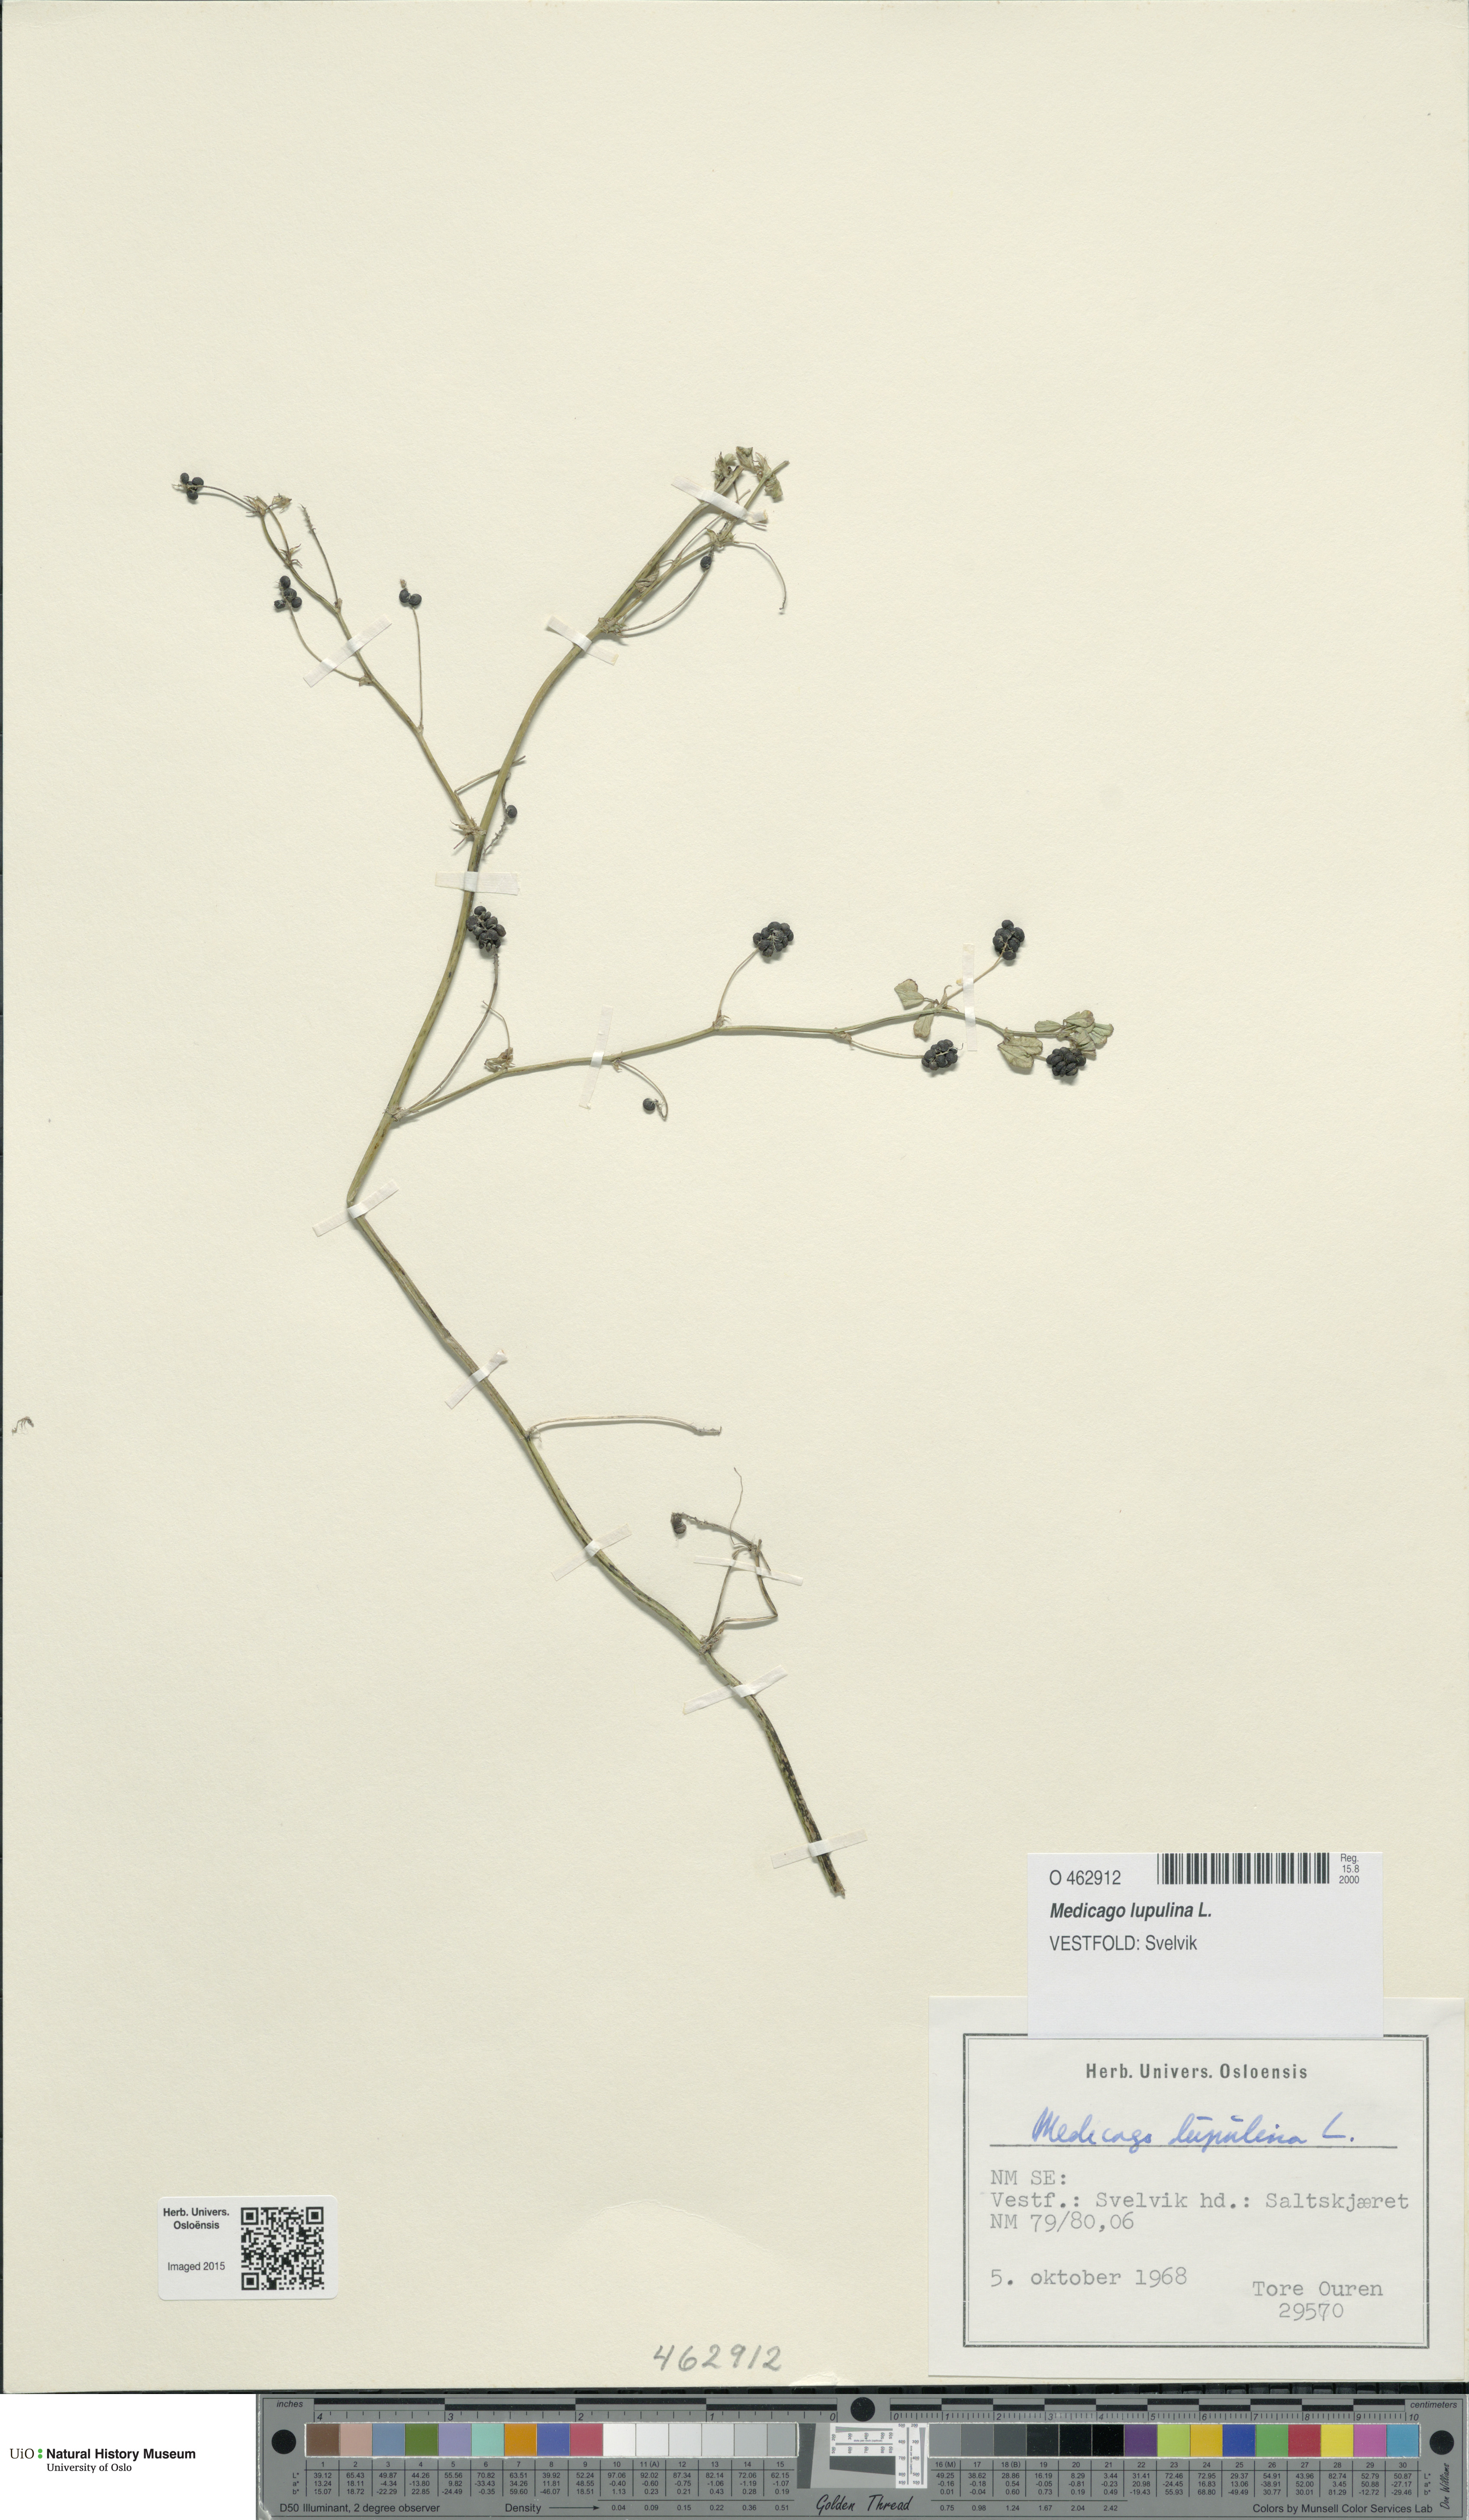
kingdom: Plantae
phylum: Tracheophyta
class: Magnoliopsida
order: Fabales
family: Fabaceae
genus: Medicago
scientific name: Medicago lupulina
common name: Black medick
